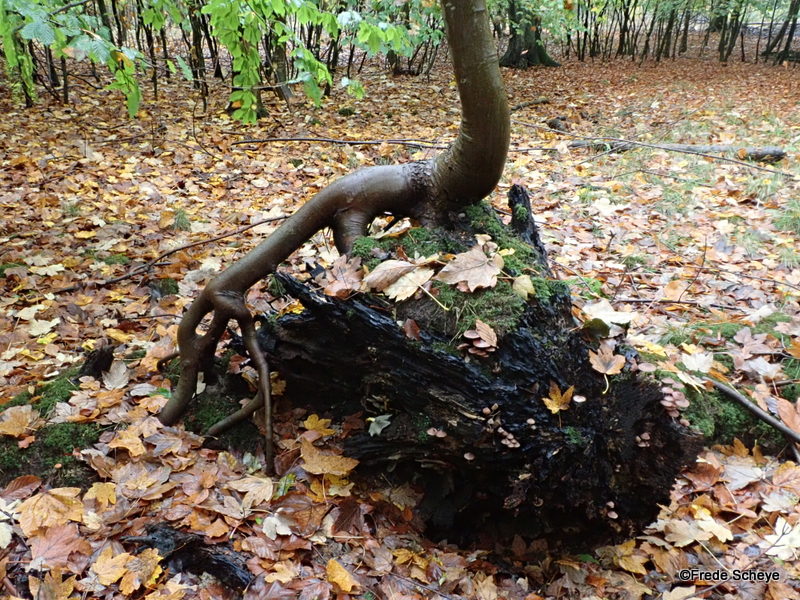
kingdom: Fungi
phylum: Basidiomycota
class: Agaricomycetes
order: Agaricales
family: Mycenaceae
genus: Mycena
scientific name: Mycena haematopus
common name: blødende huesvamp
